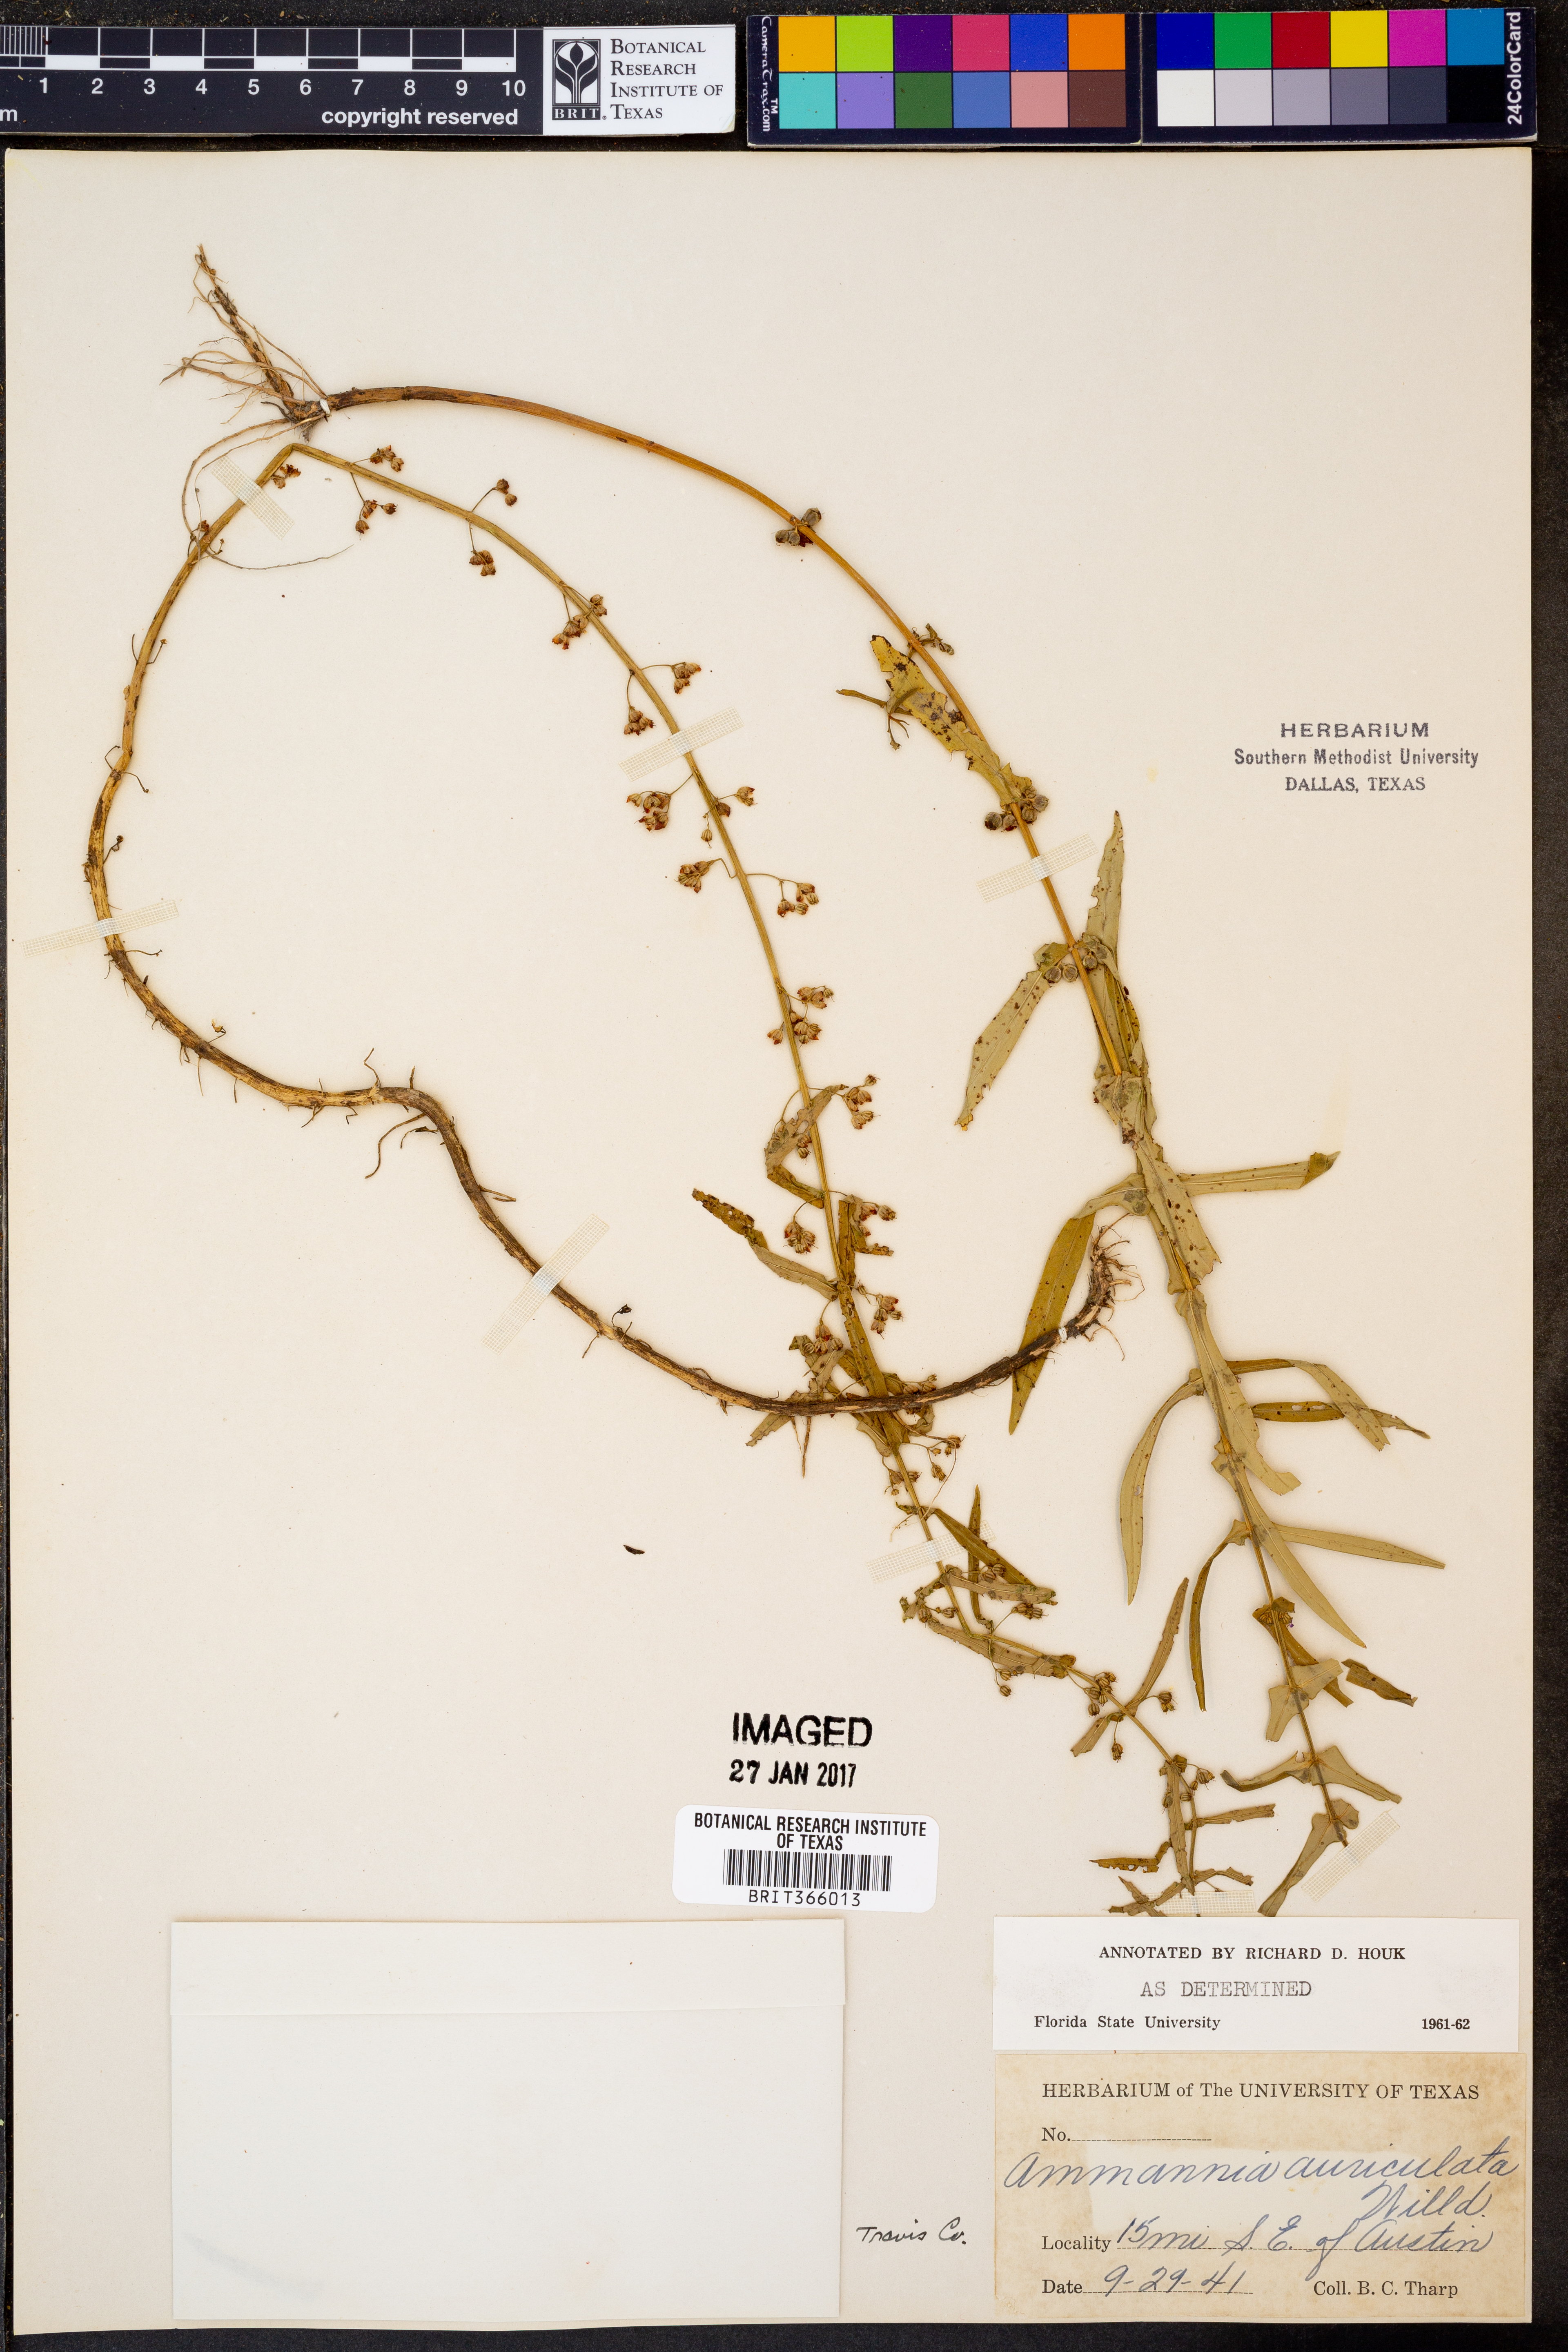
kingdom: Plantae
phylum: Tracheophyta
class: Magnoliopsida
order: Myrtales
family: Lythraceae
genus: Ammannia
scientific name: Ammannia auriculata
